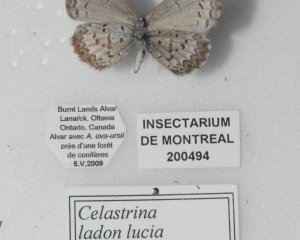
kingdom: Animalia
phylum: Arthropoda
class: Insecta
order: Lepidoptera
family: Lycaenidae
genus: Celastrina
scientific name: Celastrina lucia
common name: Northern Spring Azure
